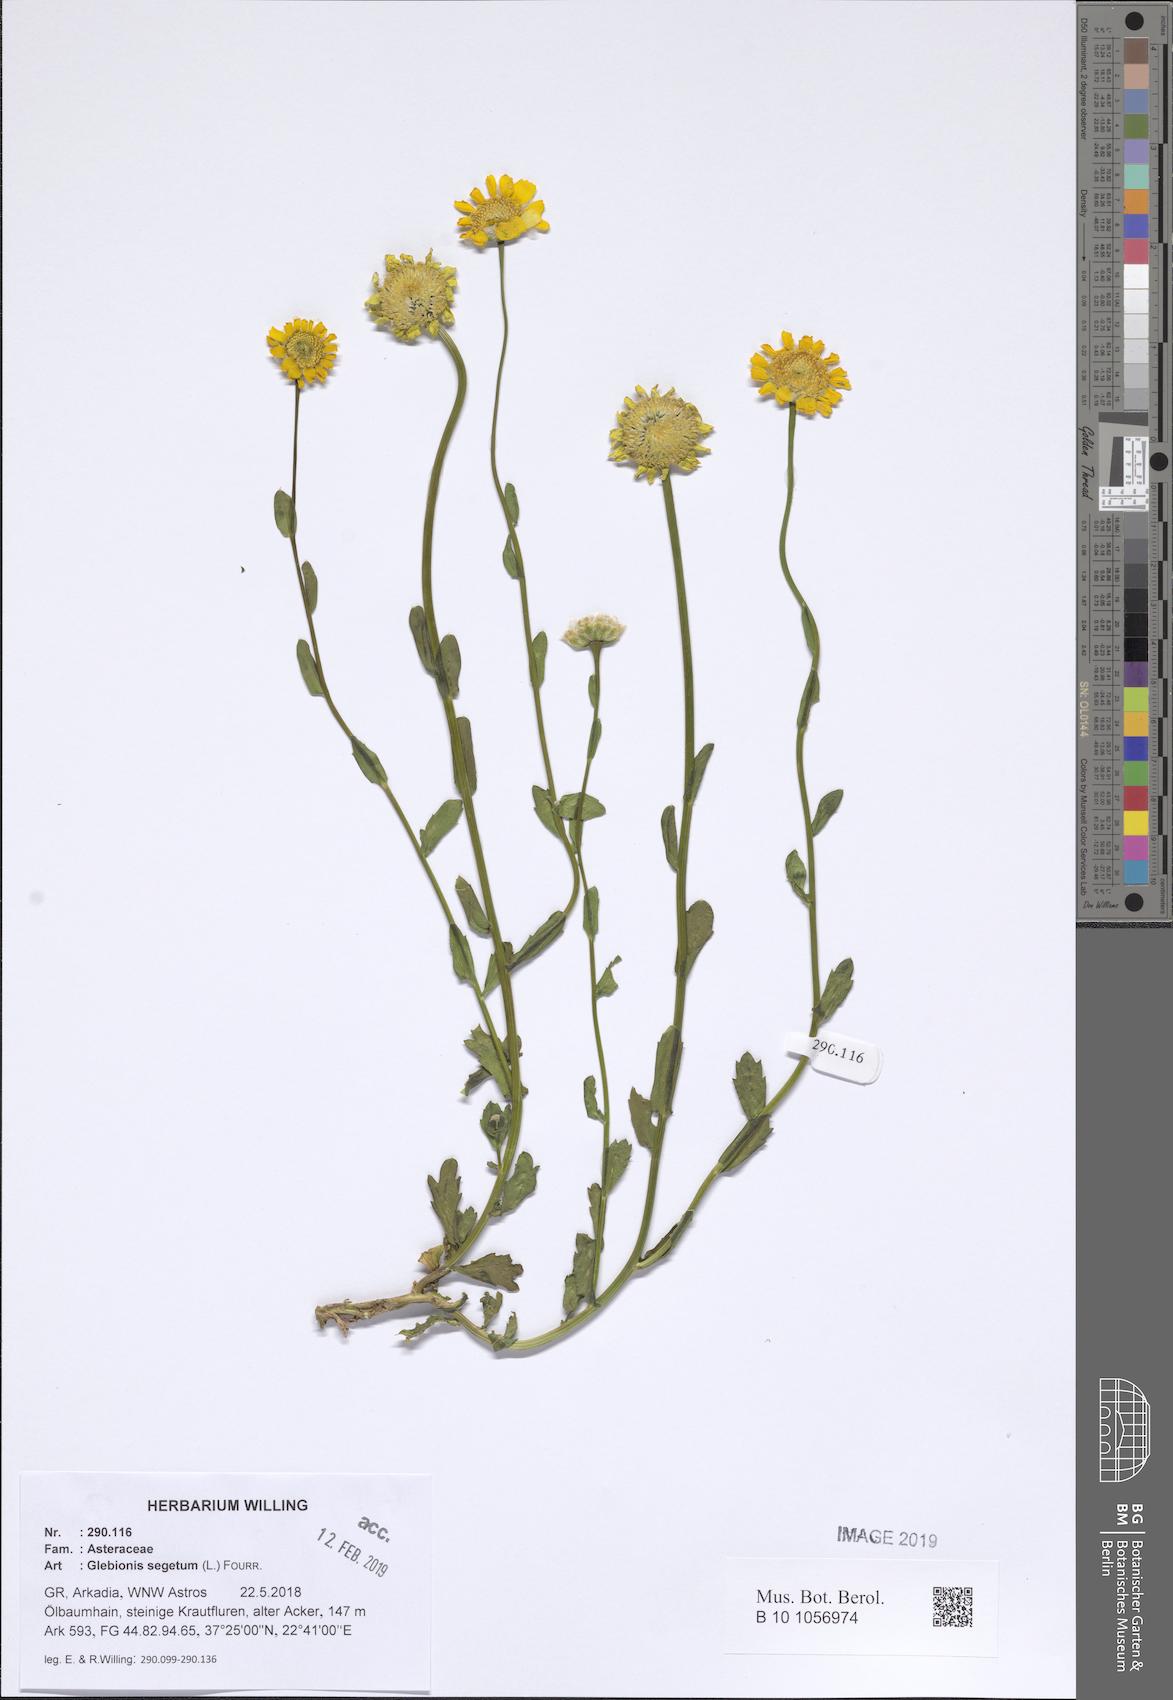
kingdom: Plantae
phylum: Tracheophyta
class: Magnoliopsida
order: Asterales
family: Asteraceae
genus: Glebionis
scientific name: Glebionis segetum
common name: Corndaisy
